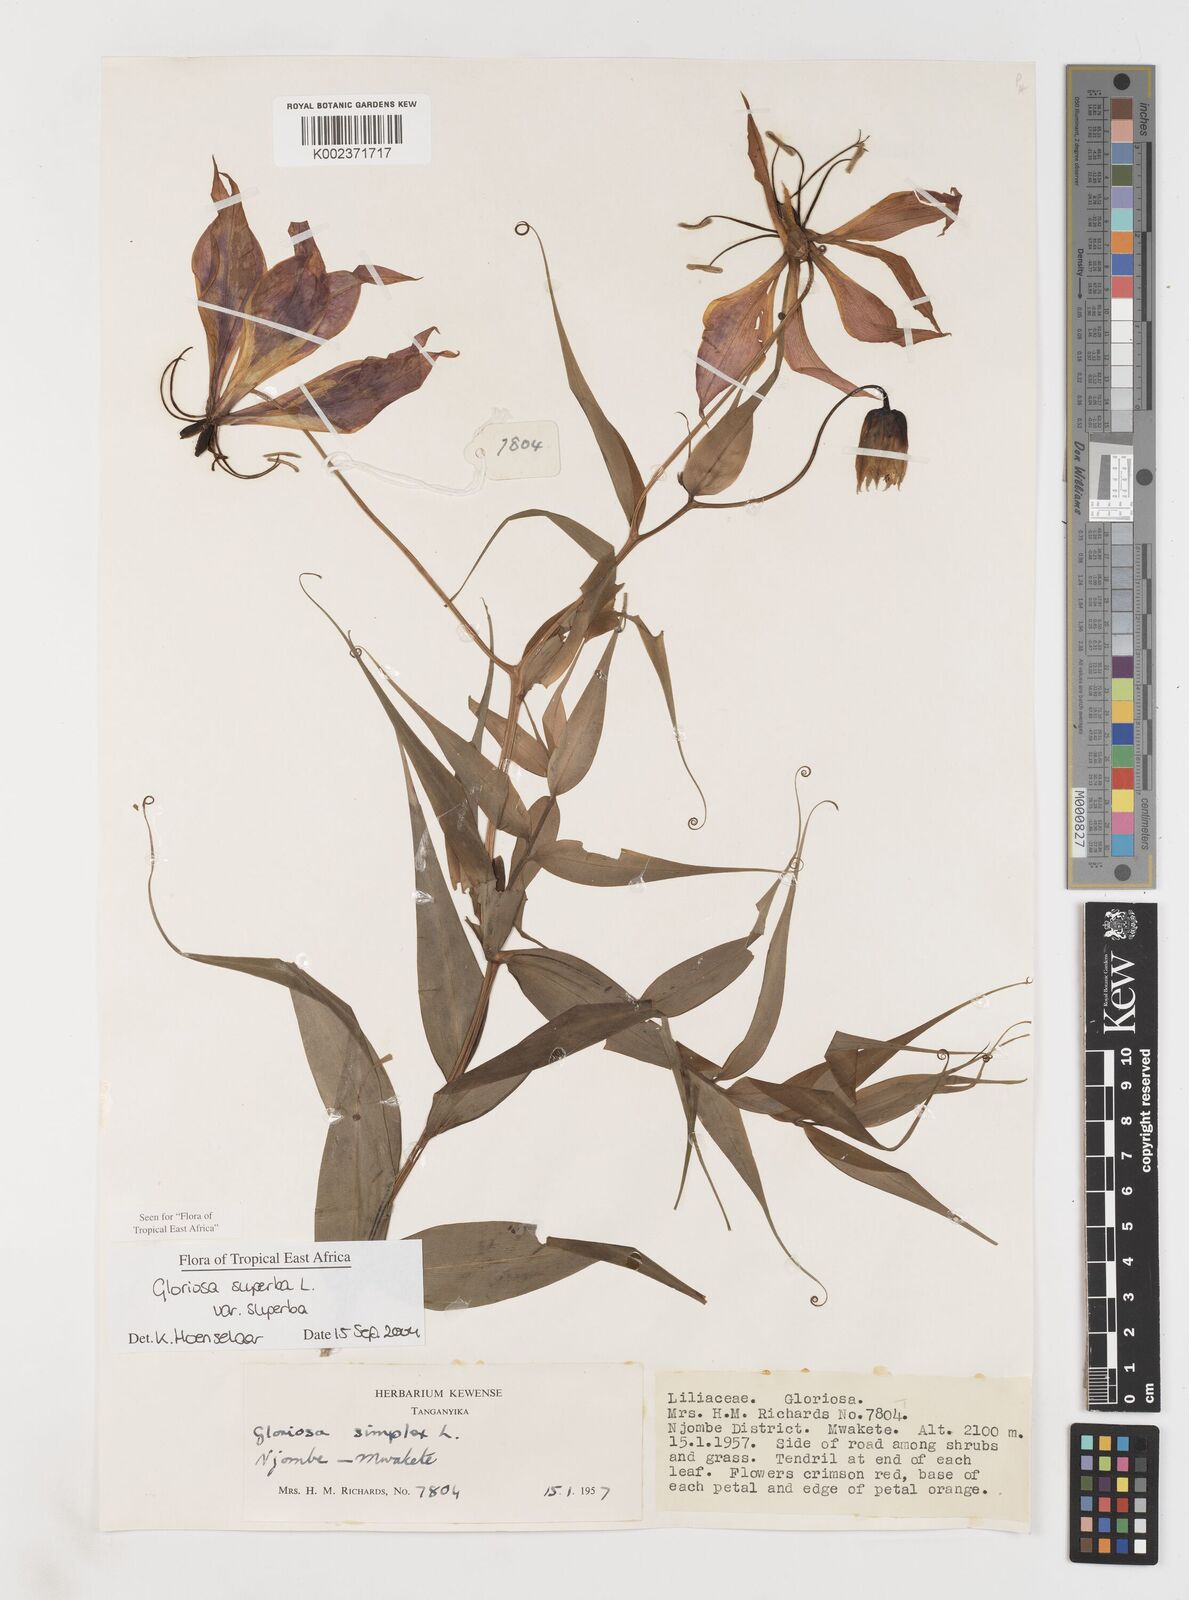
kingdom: Plantae
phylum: Tracheophyta
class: Liliopsida
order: Liliales
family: Colchicaceae
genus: Gloriosa
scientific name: Gloriosa simplex
